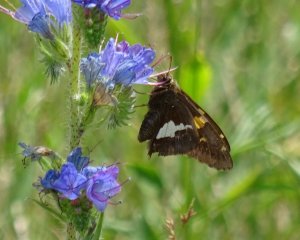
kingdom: Animalia
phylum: Arthropoda
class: Insecta
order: Lepidoptera
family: Hesperiidae
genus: Epargyreus
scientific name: Epargyreus clarus
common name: Silver-spotted Skipper
